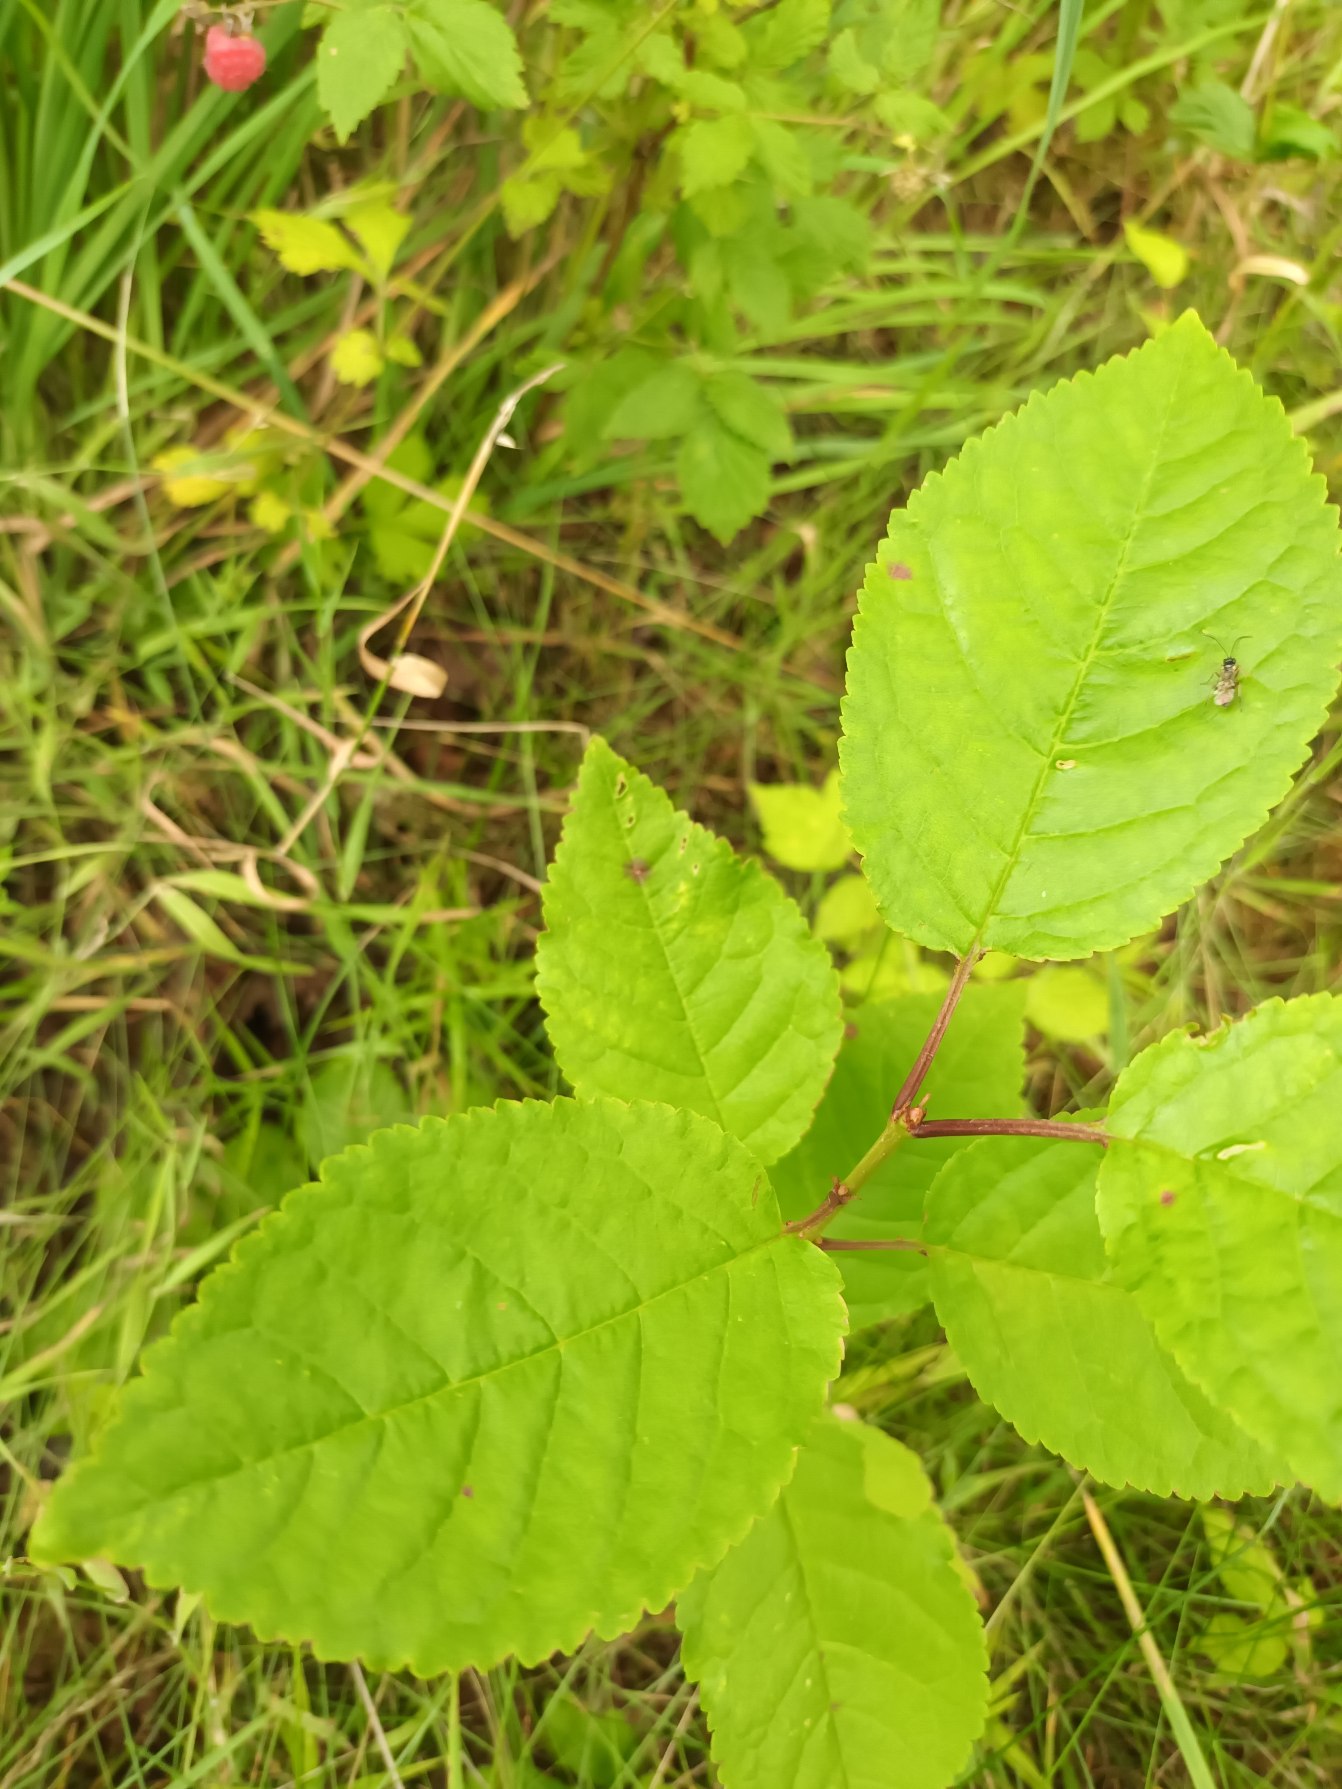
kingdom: Plantae
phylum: Tracheophyta
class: Magnoliopsida
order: Rosales
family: Rosaceae
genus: Prunus
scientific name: Prunus avium
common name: Fugle-kirsebær
